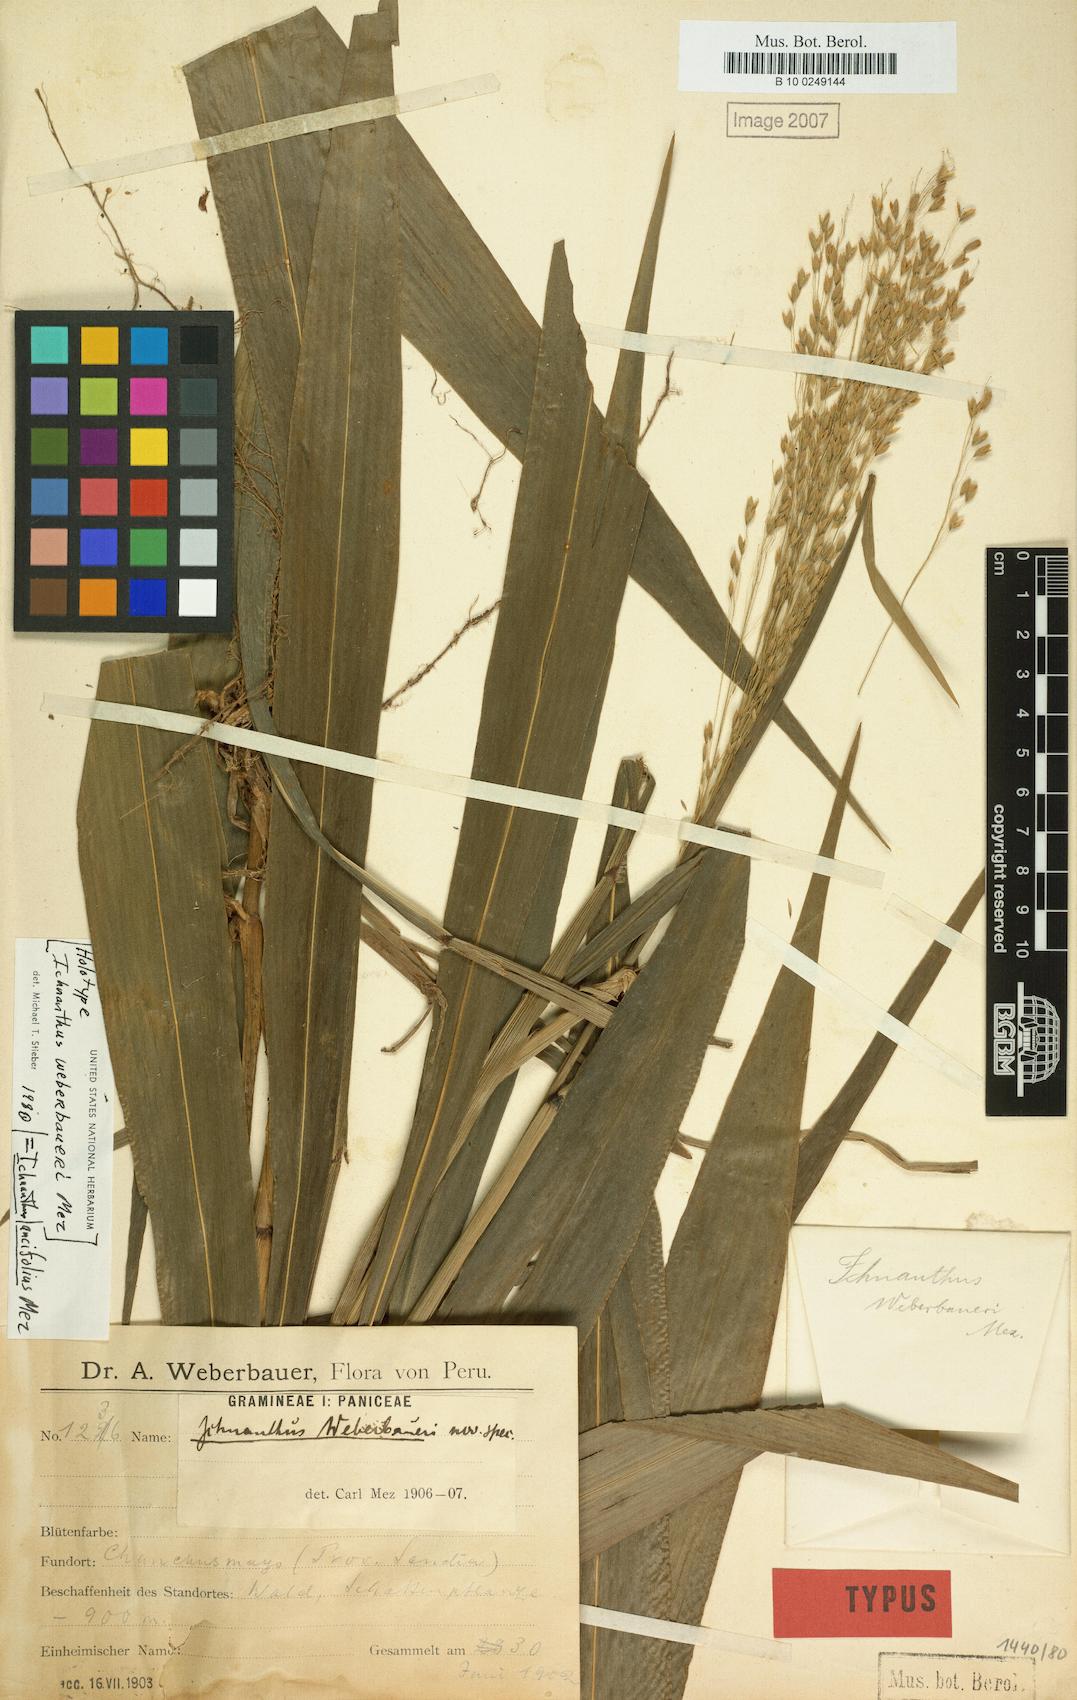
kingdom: Plantae
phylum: Tracheophyta
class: Liliopsida
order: Poales
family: Poaceae
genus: Ichnanthus
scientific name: Ichnanthus lancifolius
